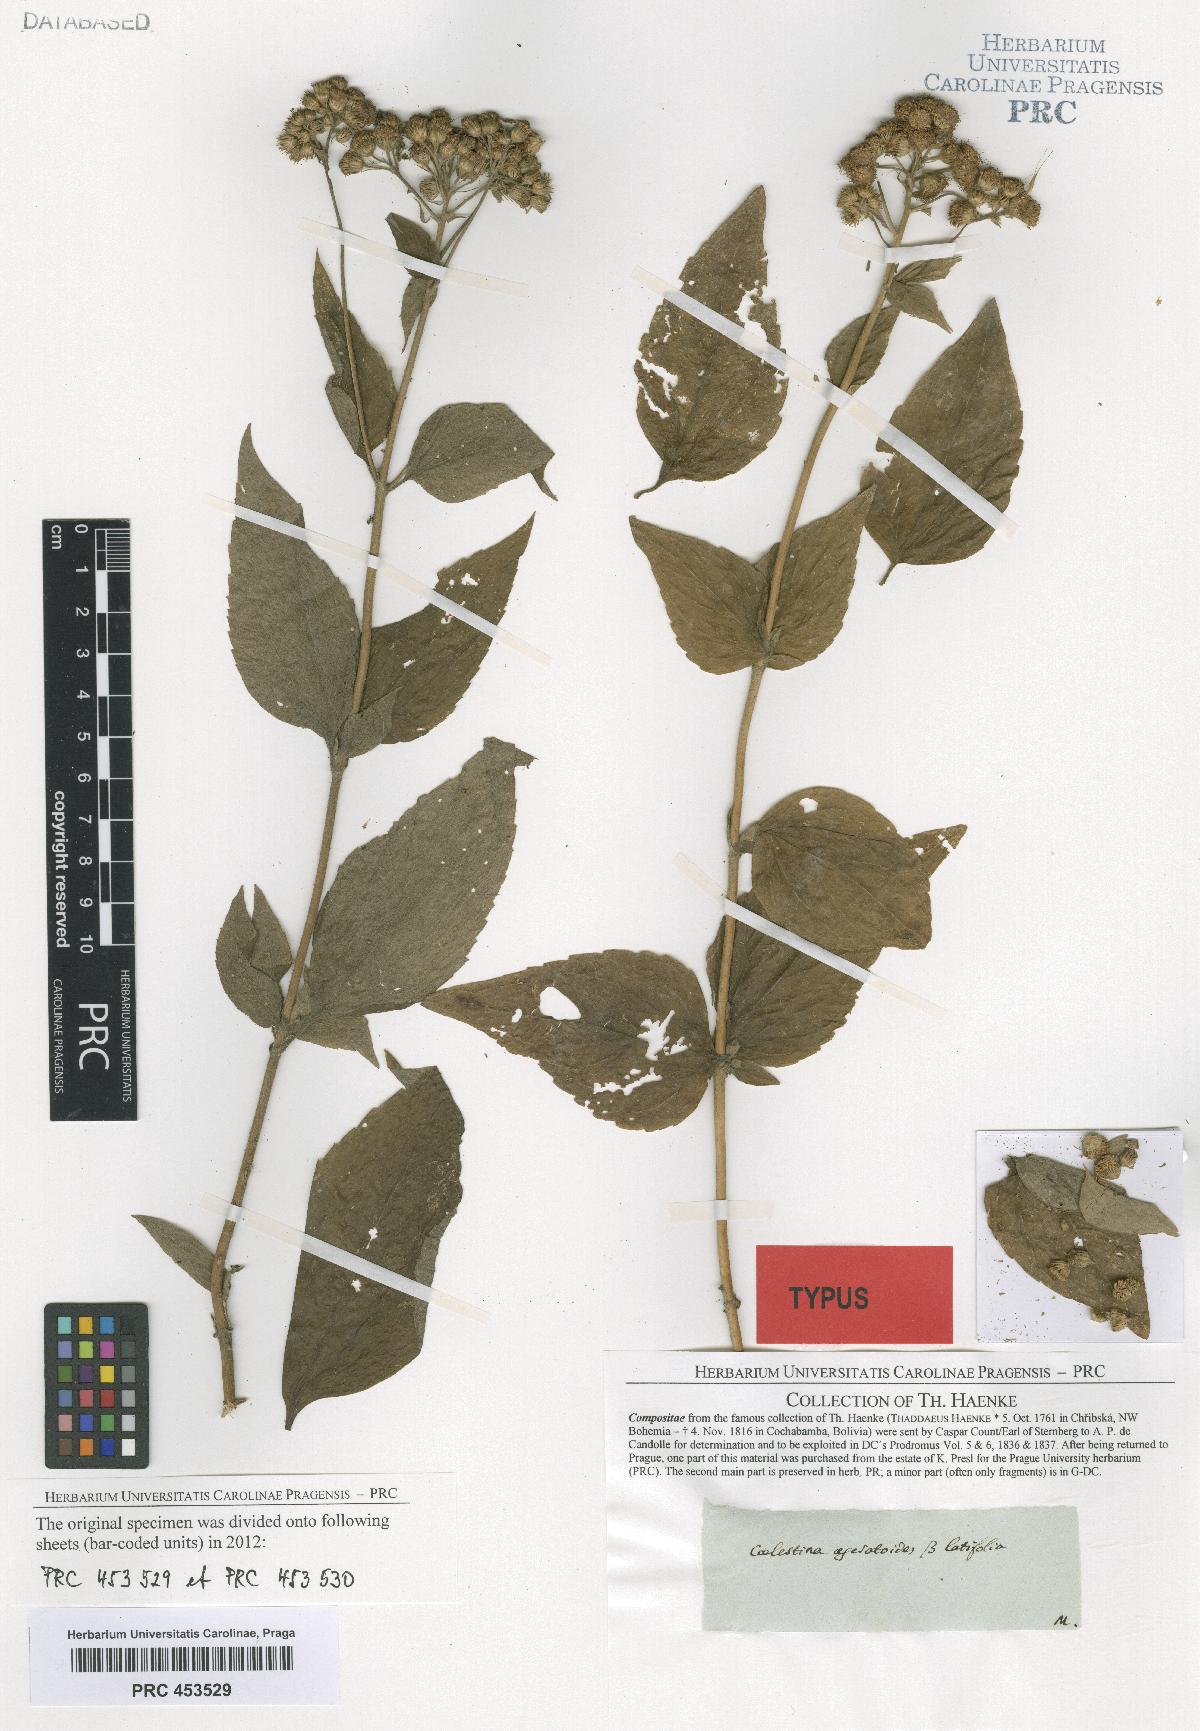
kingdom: Plantae
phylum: Tracheophyta
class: Magnoliopsida
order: Asterales
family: Asteraceae
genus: Ageratum
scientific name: Ageratum corymbosum
